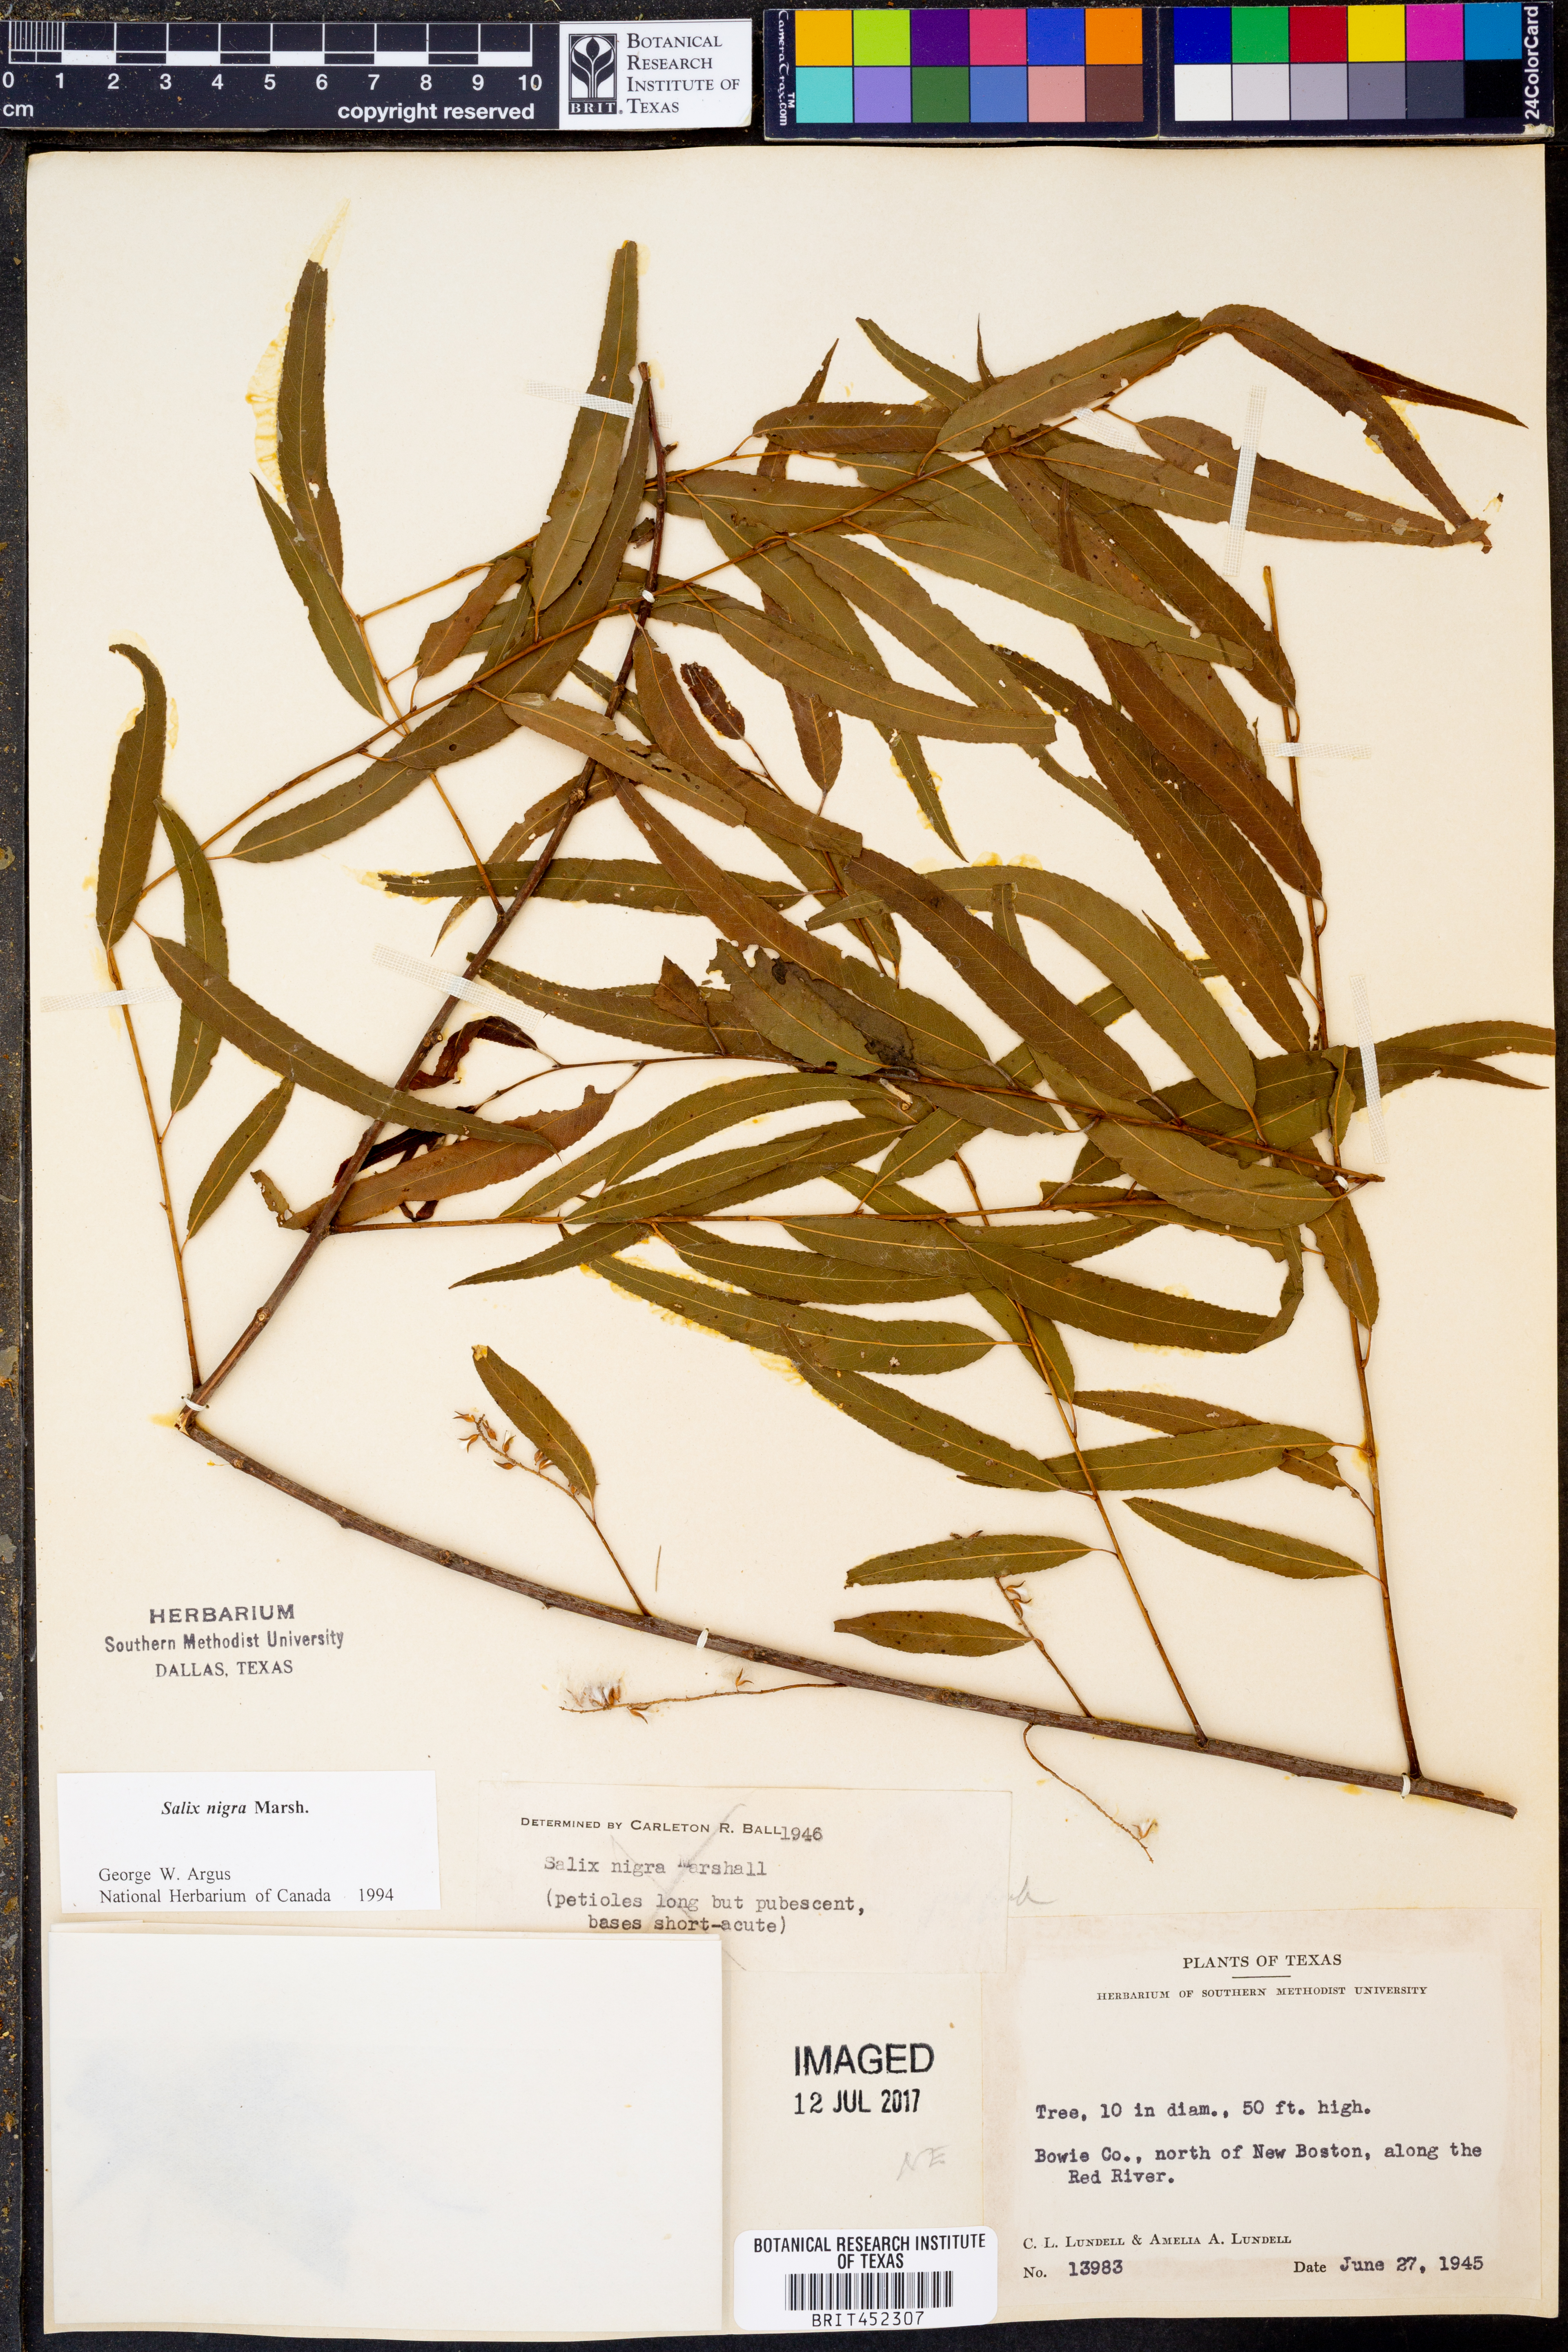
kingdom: Plantae
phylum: Tracheophyta
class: Magnoliopsida
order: Malpighiales
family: Salicaceae
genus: Salix
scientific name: Salix nigra
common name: Black willow
